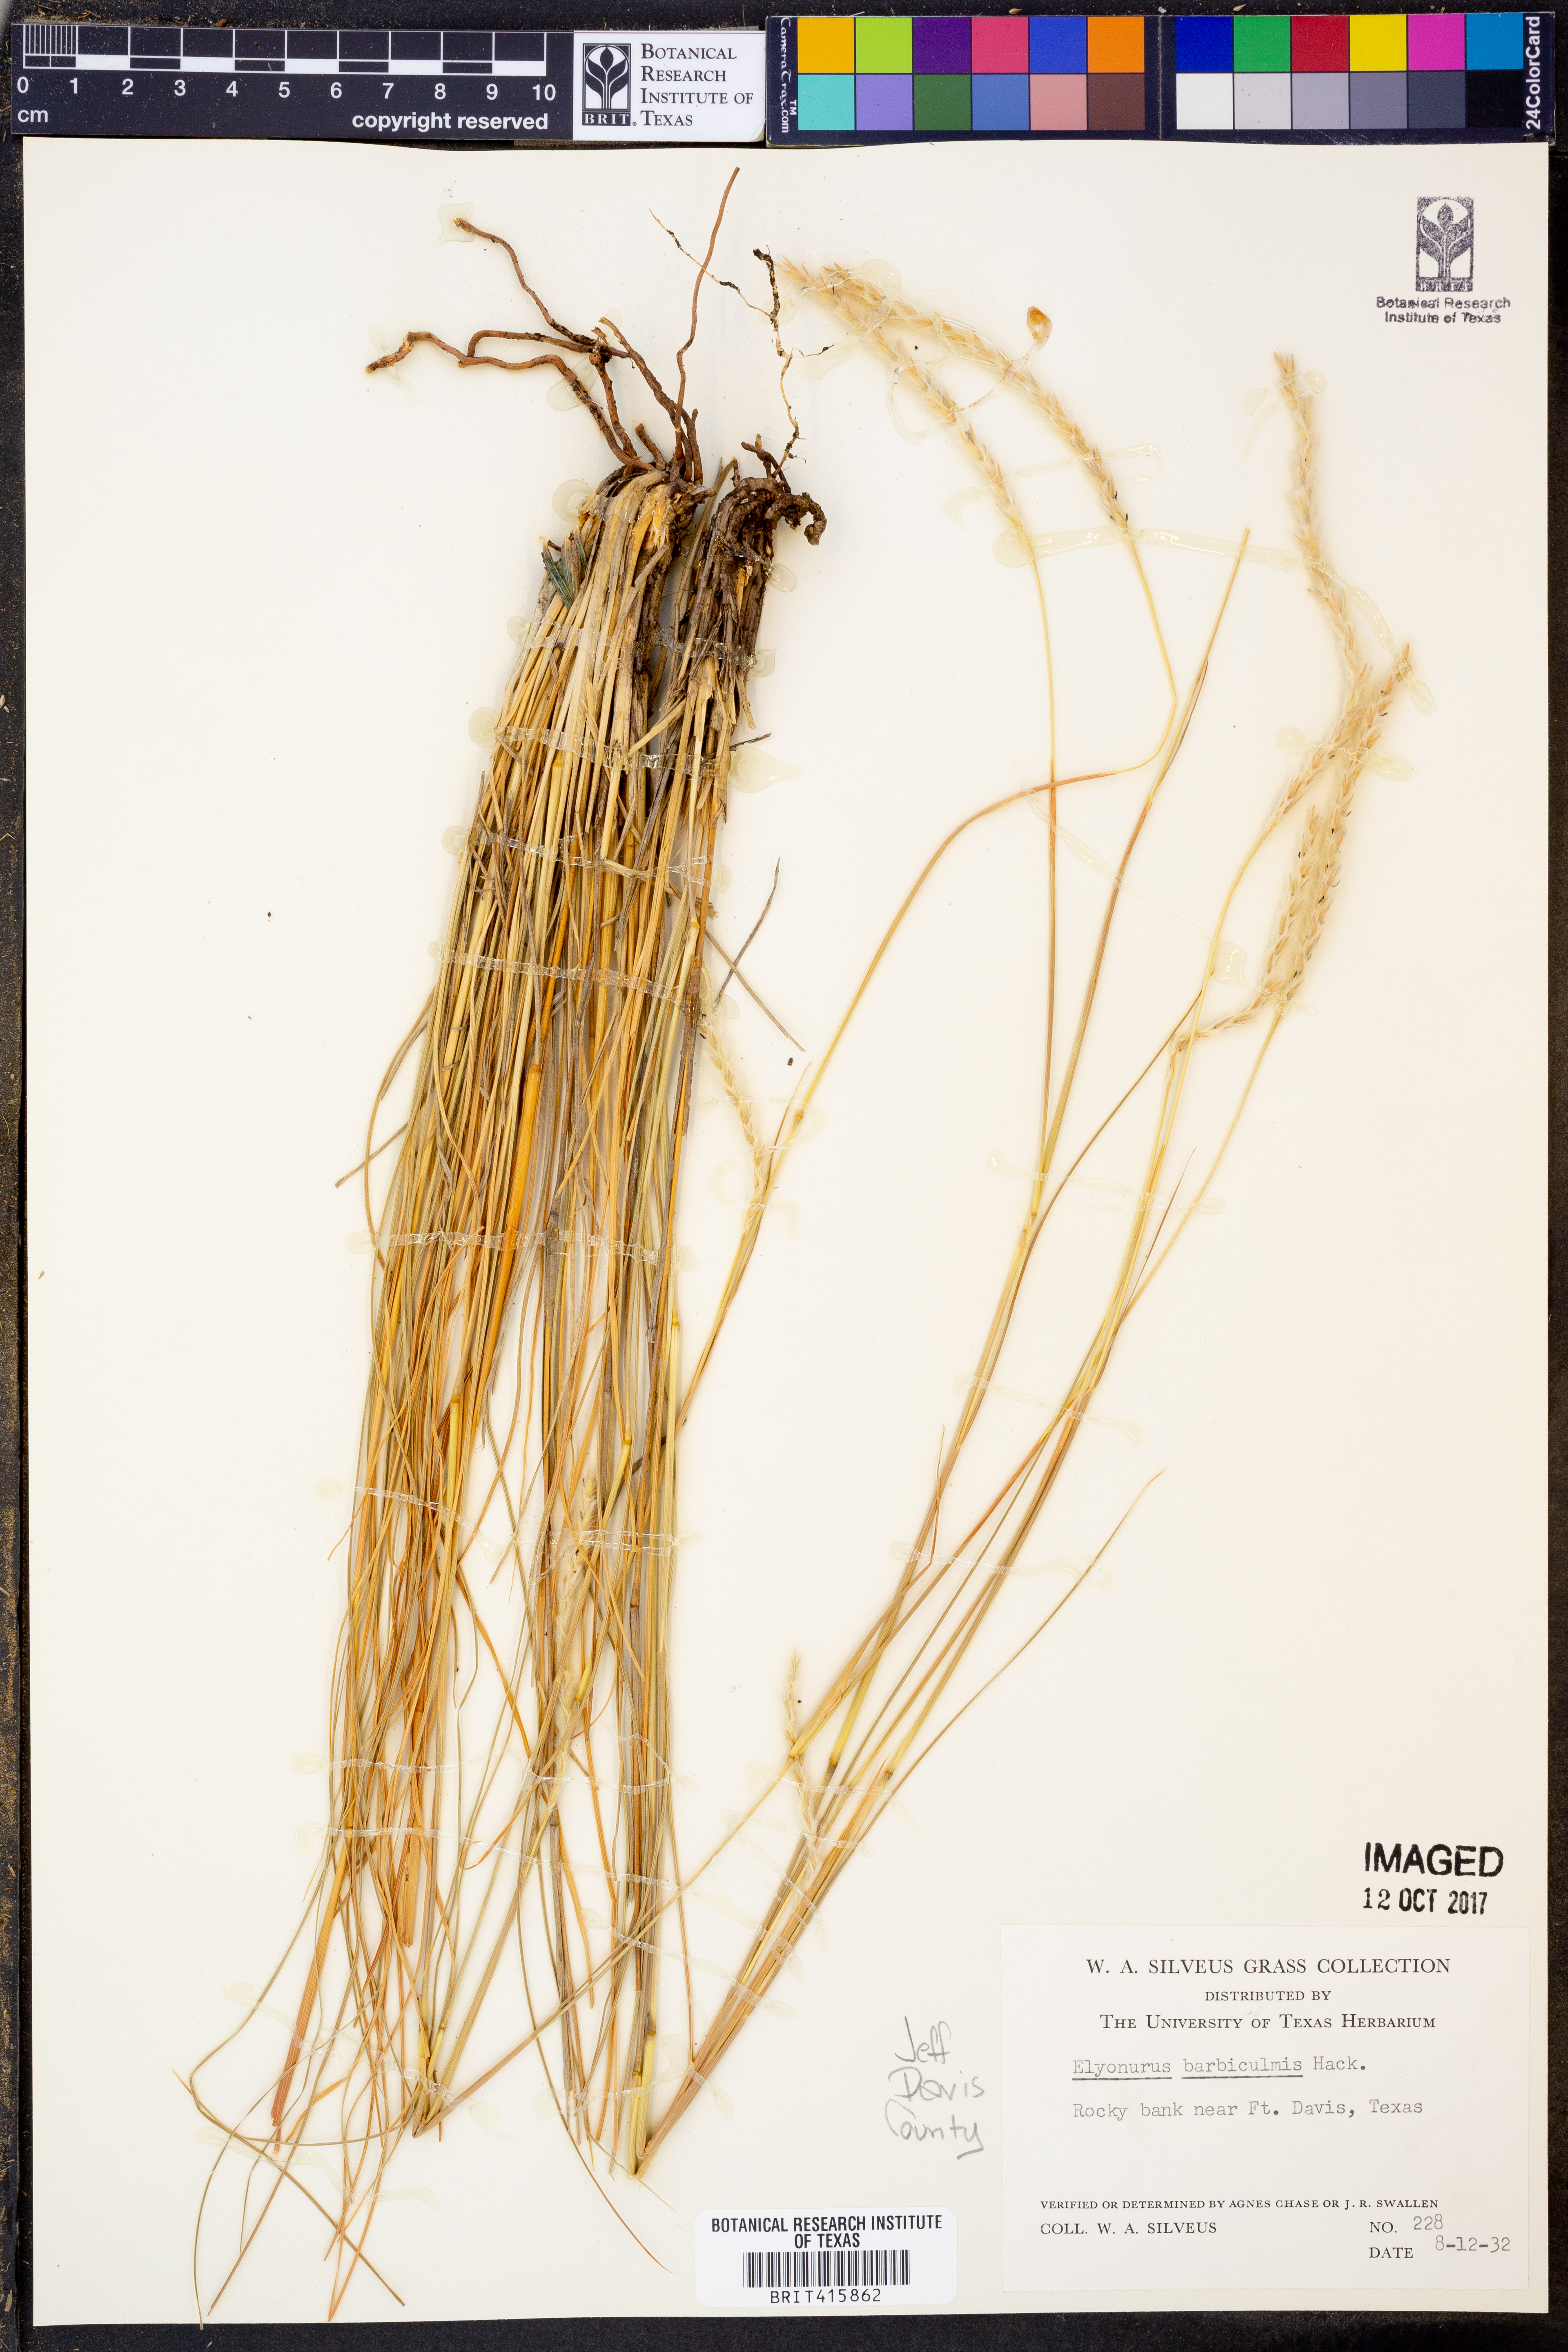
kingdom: Plantae
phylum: Tracheophyta
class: Liliopsida
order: Poales
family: Poaceae
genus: Elionurus
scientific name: Elionurus barbiculmis
